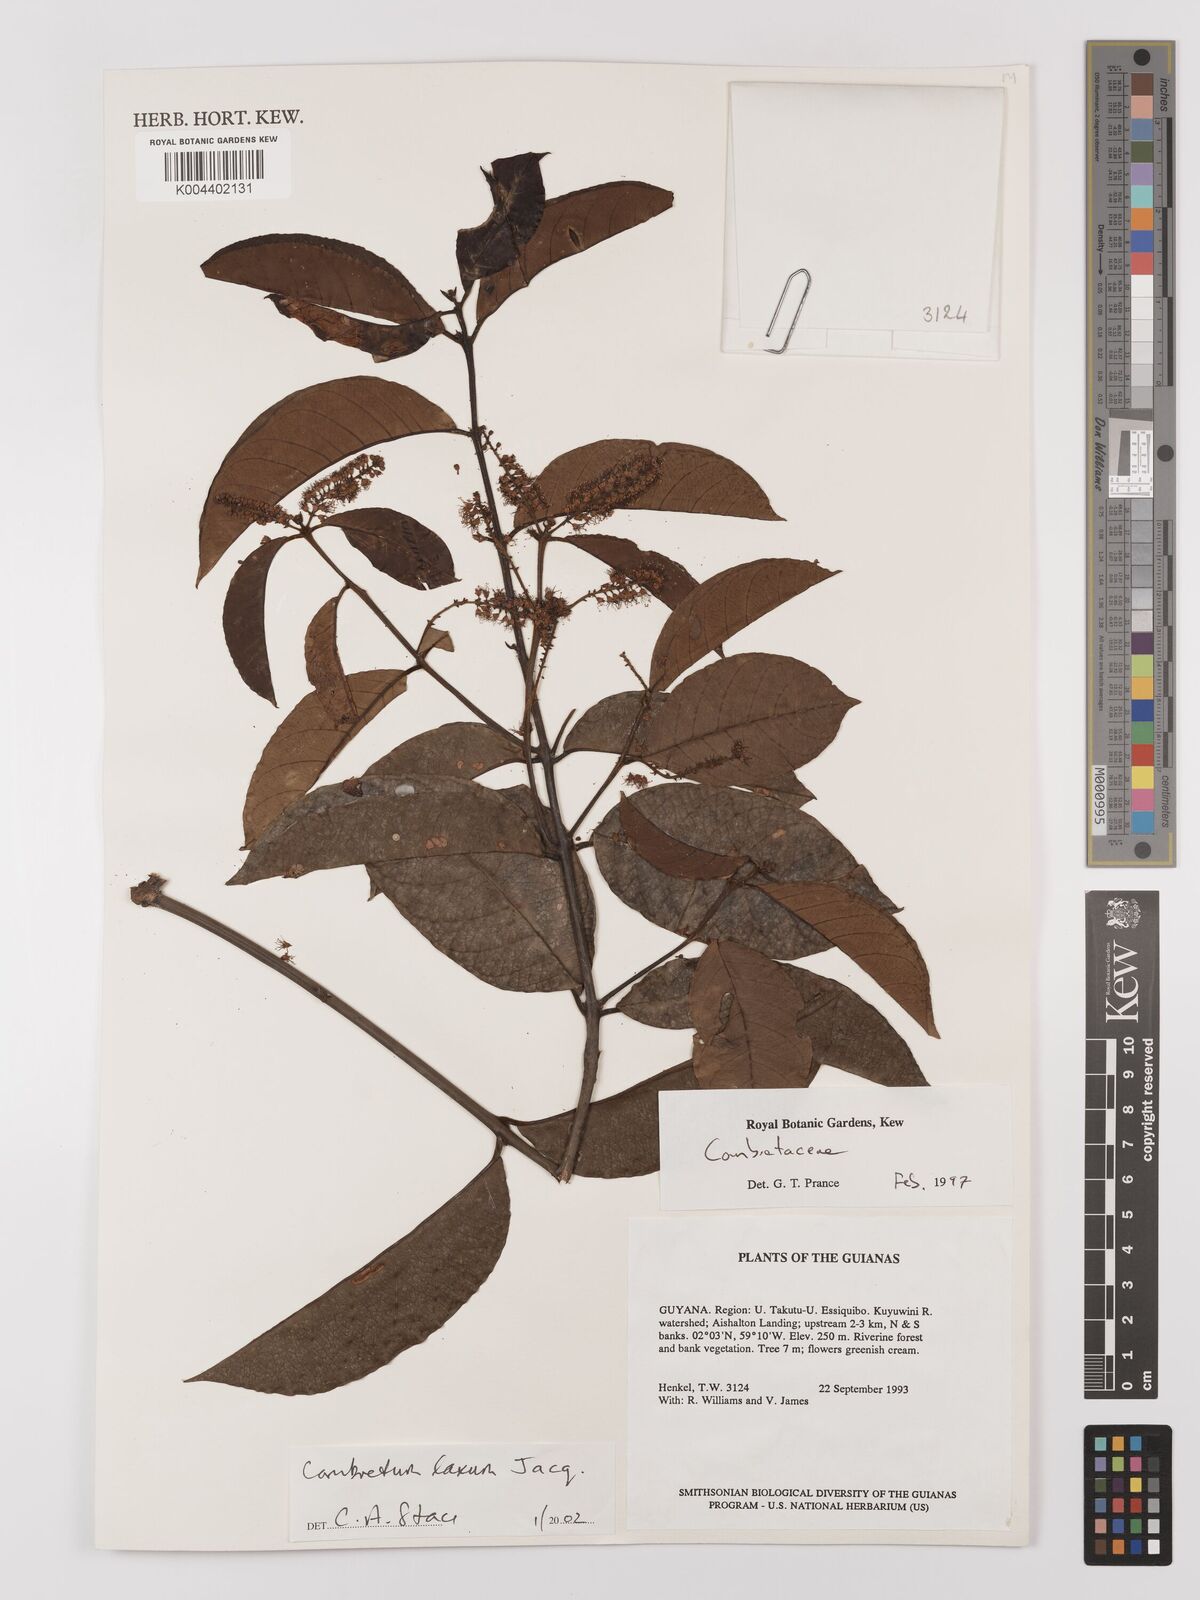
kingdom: Plantae
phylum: Tracheophyta
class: Magnoliopsida
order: Myrtales
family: Combretaceae
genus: Combretum
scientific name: Combretum
